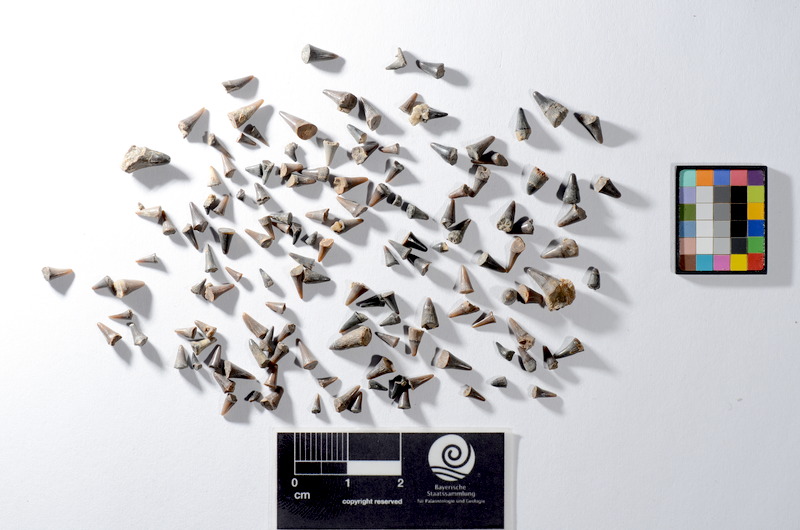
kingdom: Animalia
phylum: Chordata
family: Saurichthyidae
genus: Saurichthys
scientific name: Saurichthys acuminatus
